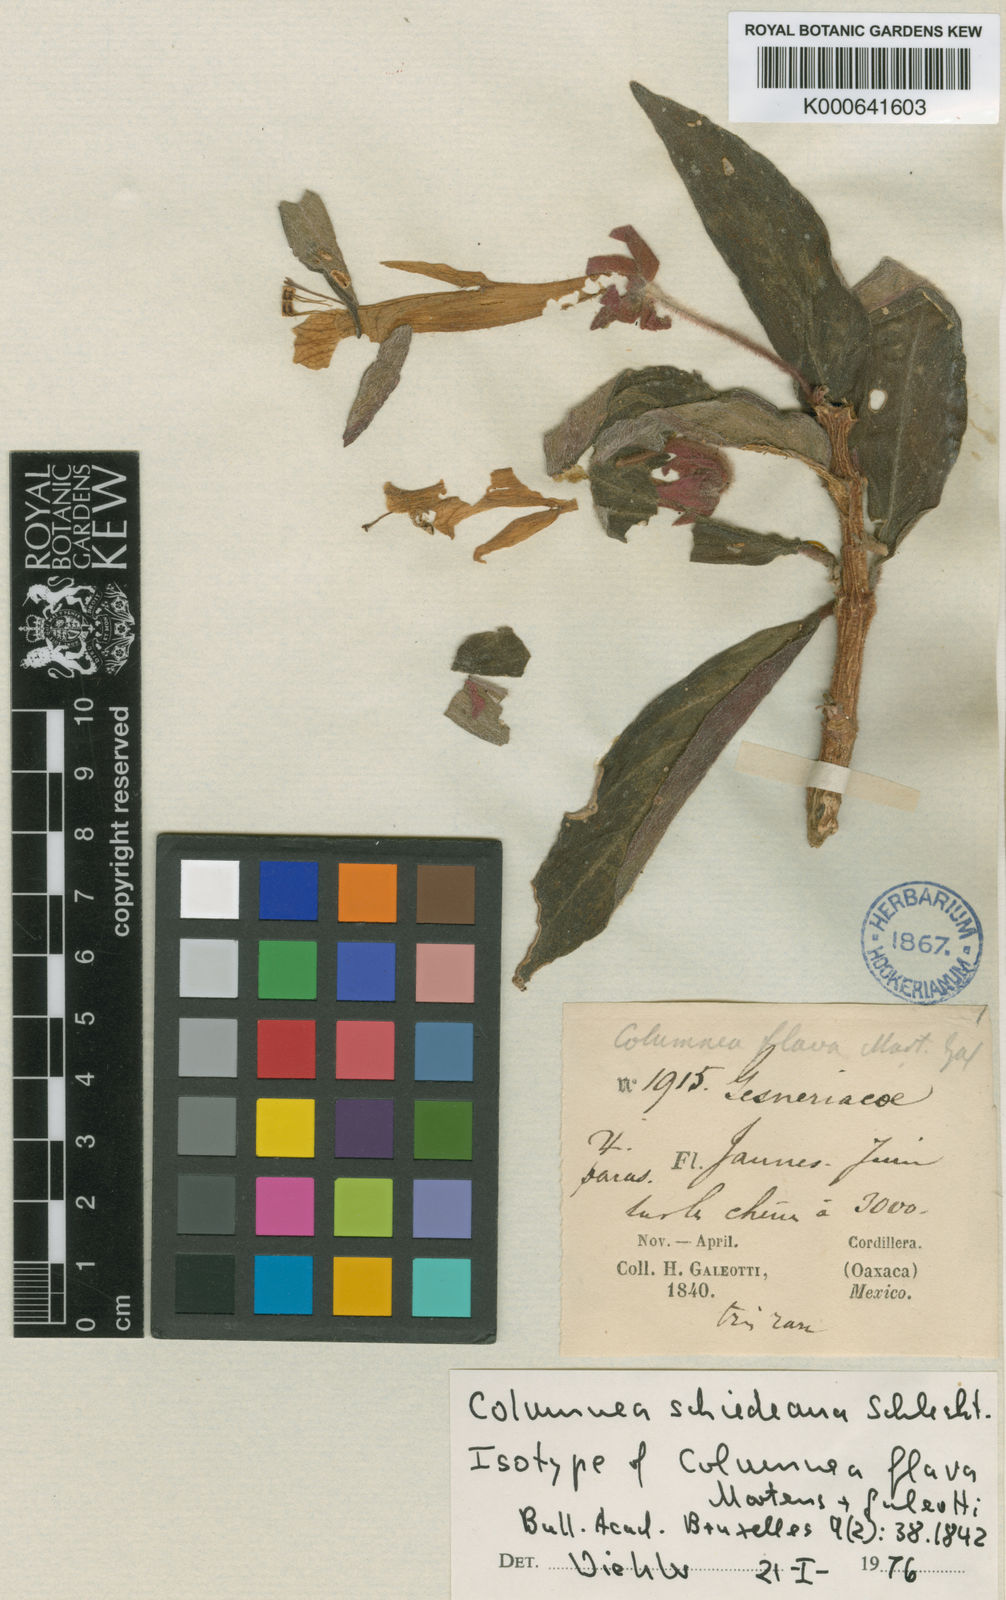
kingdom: Plantae
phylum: Tracheophyta
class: Magnoliopsida
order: Lamiales
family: Gesneriaceae
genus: Columnea
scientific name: Columnea schiedeana
